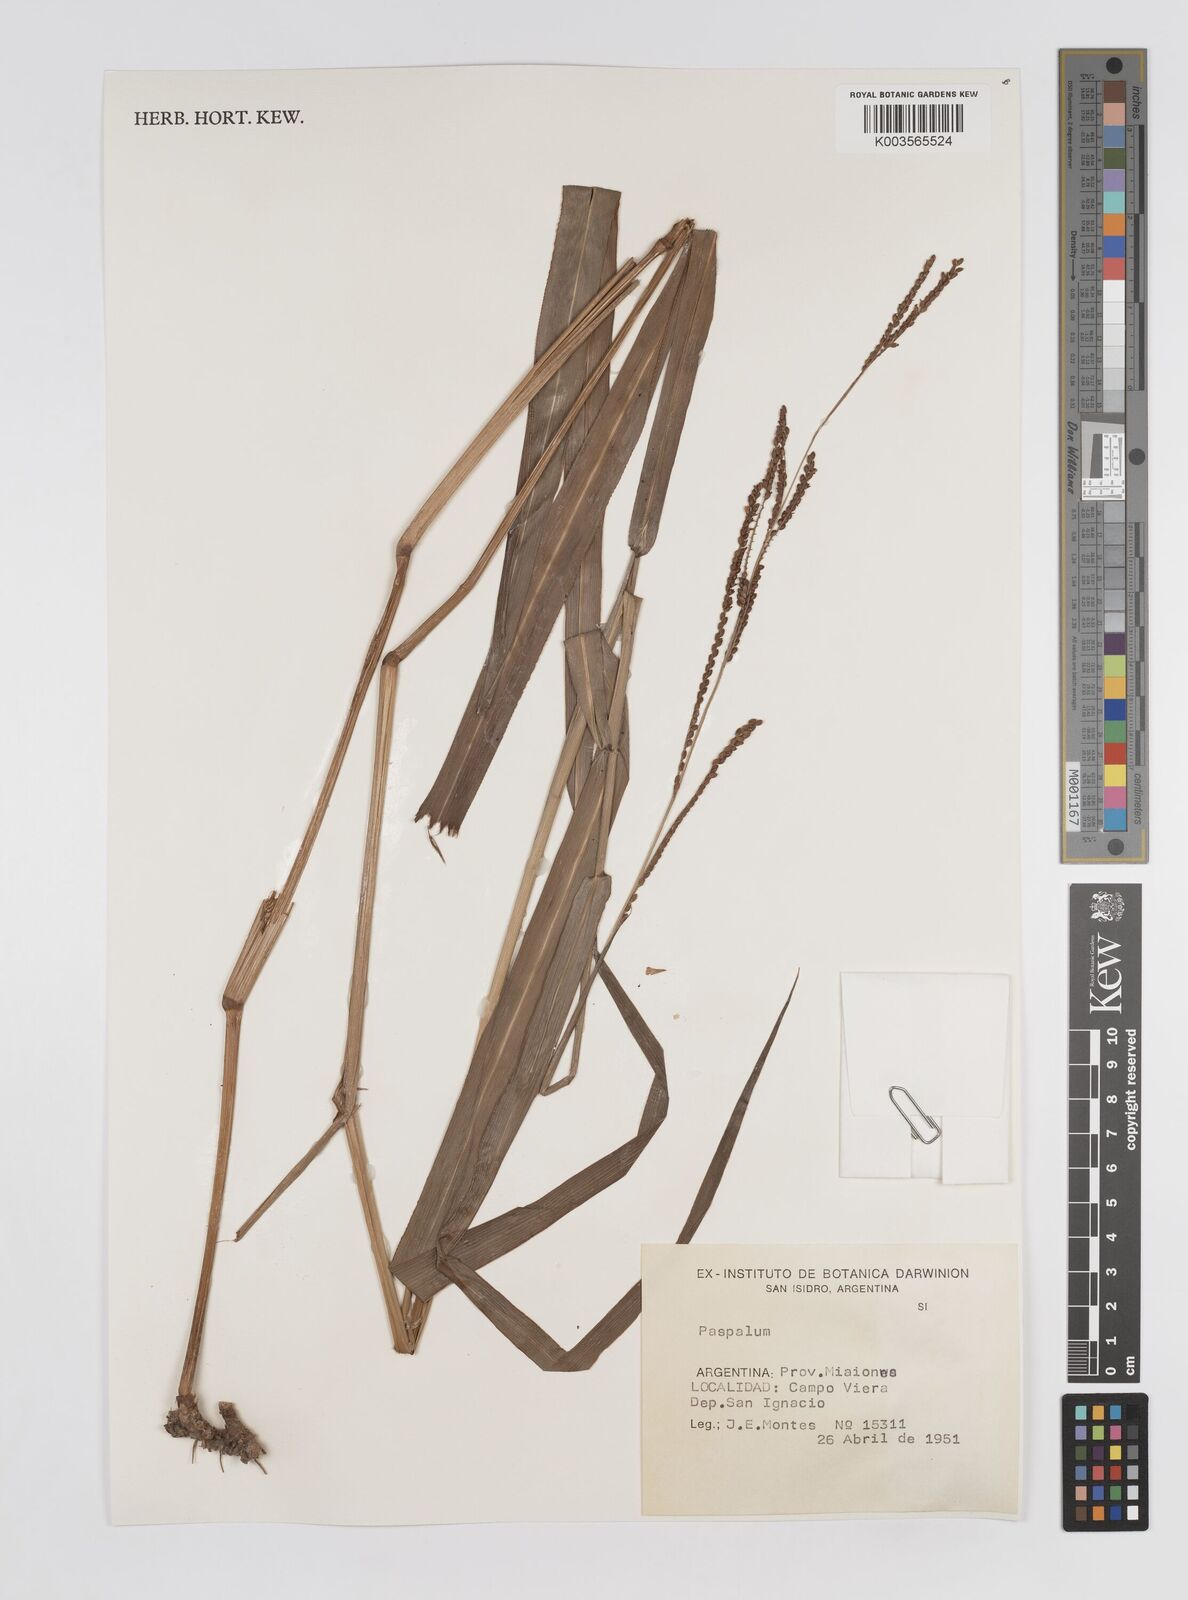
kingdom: Plantae
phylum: Tracheophyta
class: Liliopsida
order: Poales
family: Poaceae
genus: Paspalum
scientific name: Paspalum
